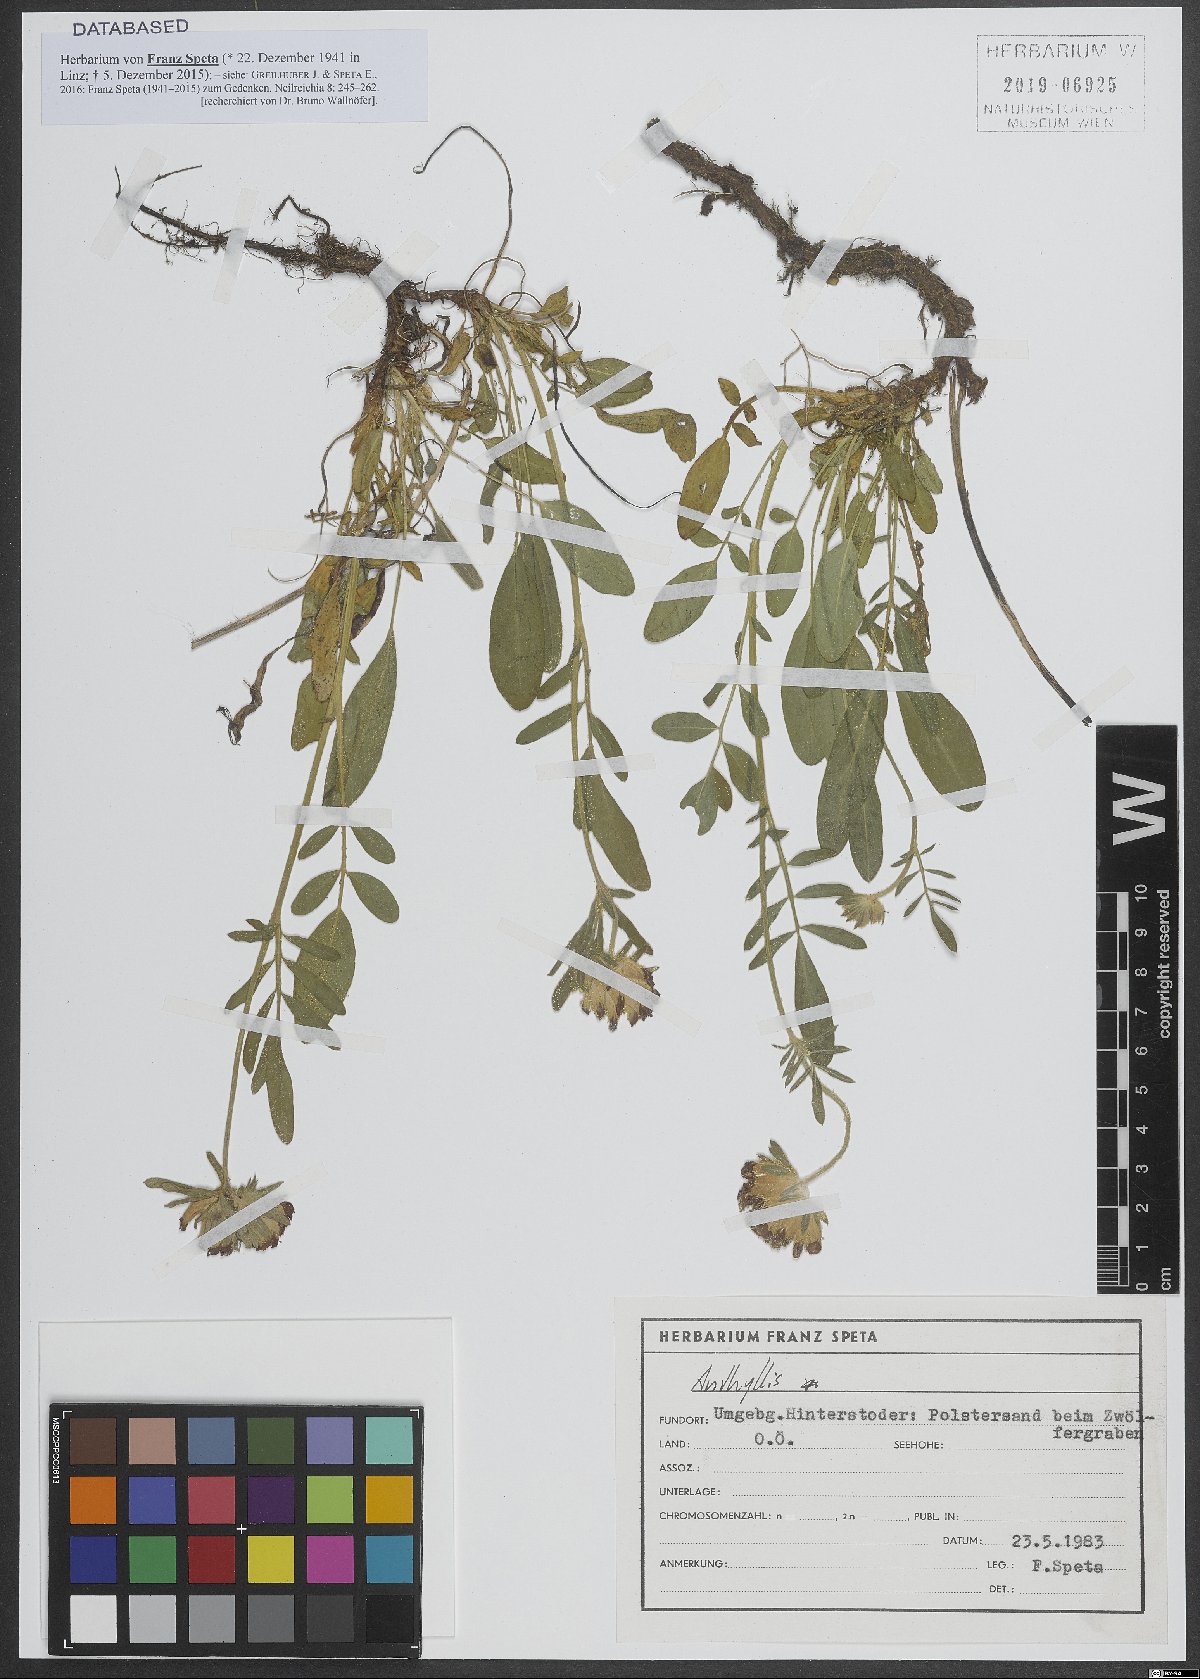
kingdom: Plantae
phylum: Tracheophyta
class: Magnoliopsida
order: Fabales
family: Fabaceae
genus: Anthyllis
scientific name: Anthyllis
